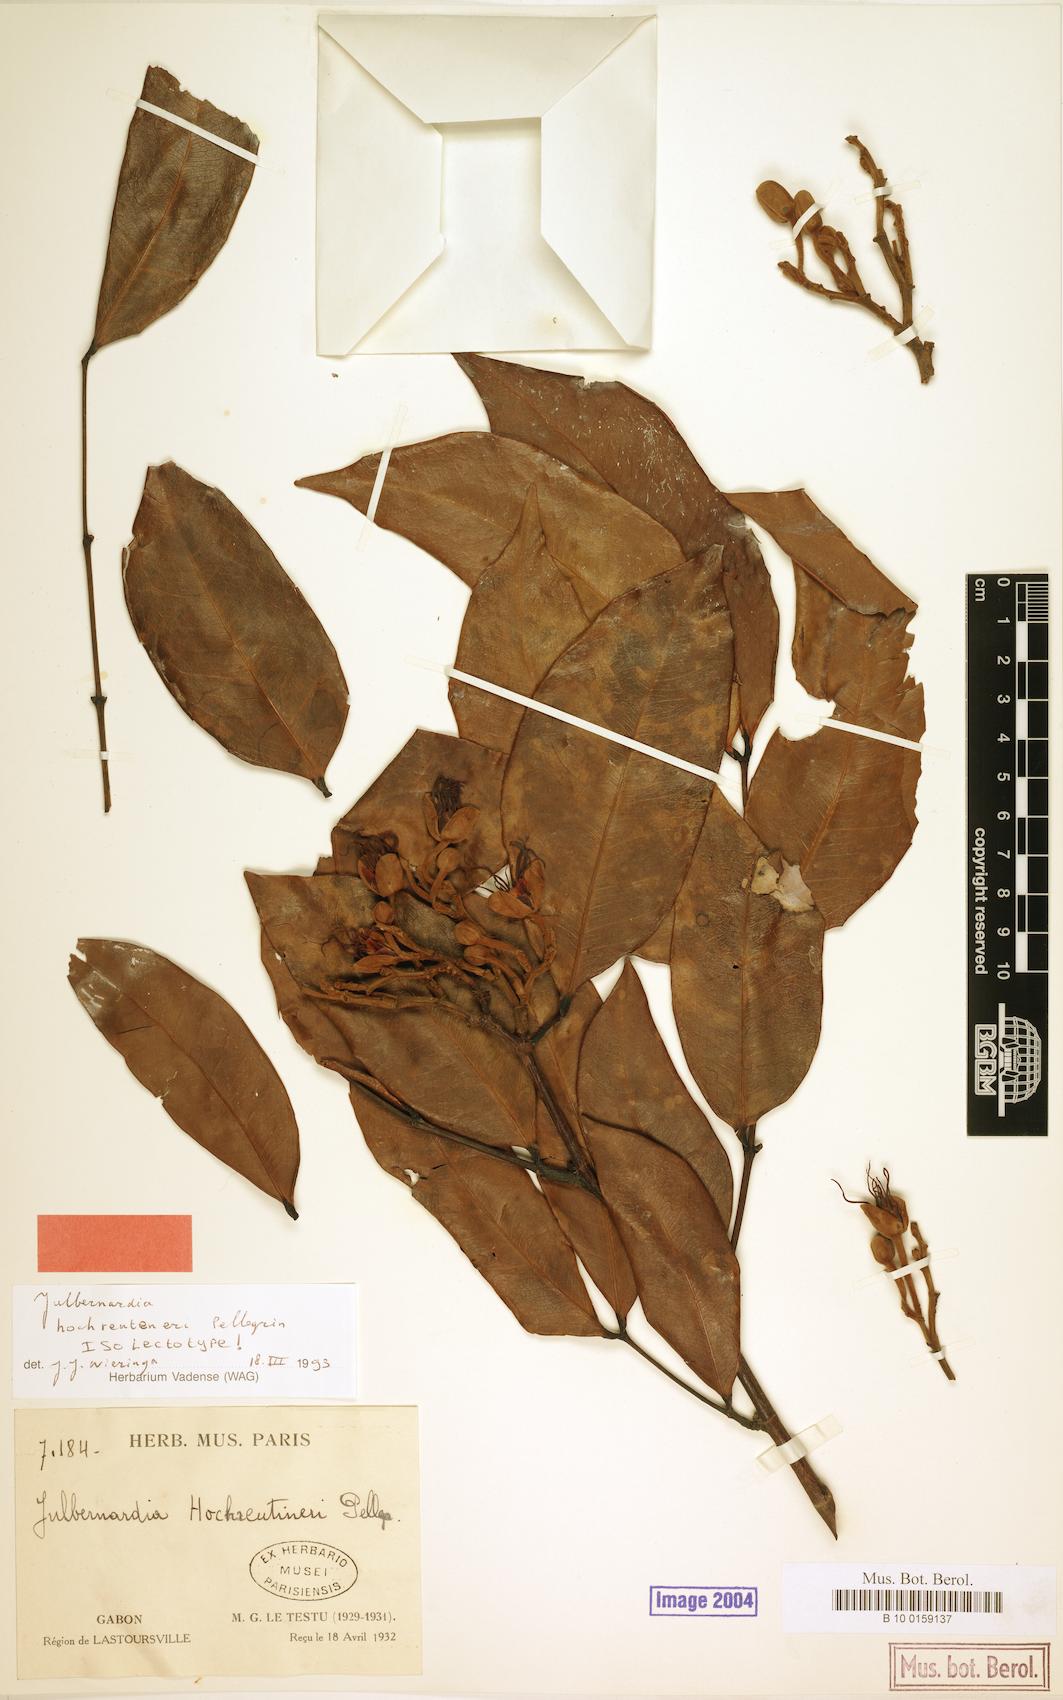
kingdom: Plantae
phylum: Tracheophyta
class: Magnoliopsida
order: Fabales
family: Fabaceae
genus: Julbernardia
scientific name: Julbernardia hochreutineri
